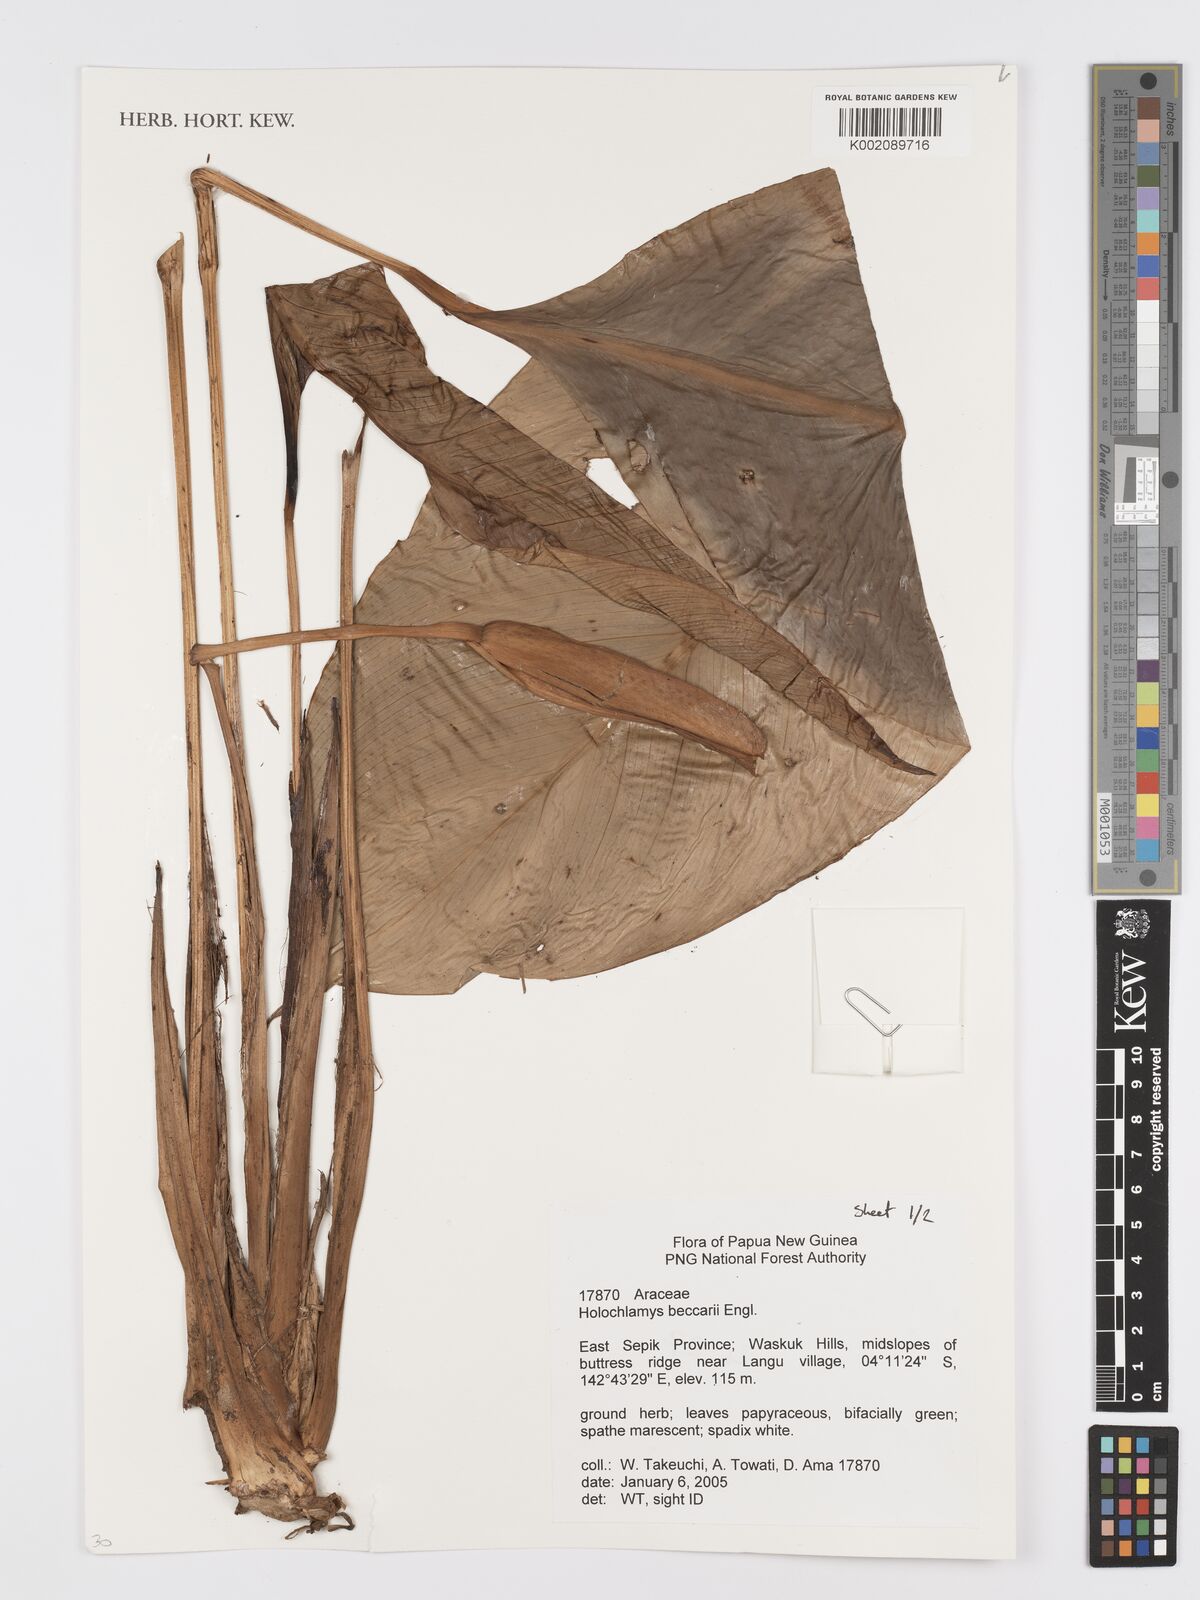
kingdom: Plantae
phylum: Tracheophyta
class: Liliopsida
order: Alismatales
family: Araceae
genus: Holochlamys
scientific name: Holochlamys beccarii
